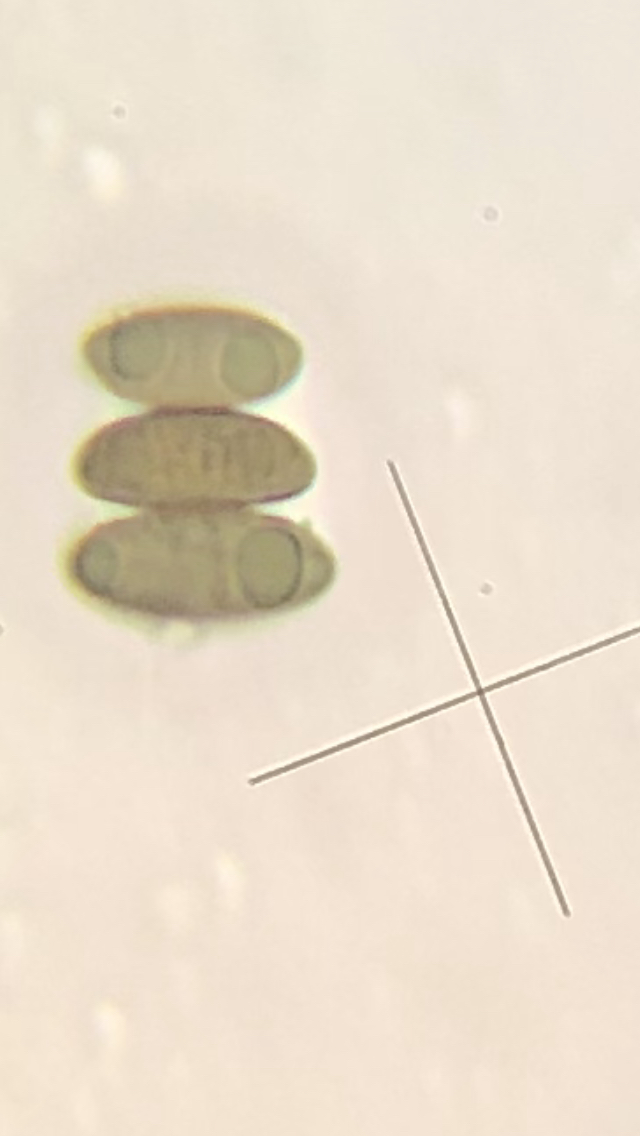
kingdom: Fungi
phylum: Ascomycota
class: Sordariomycetes
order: Xylariales
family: Xylariaceae
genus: Xylaria
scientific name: Xylaria longipes
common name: slank stødsvamp
